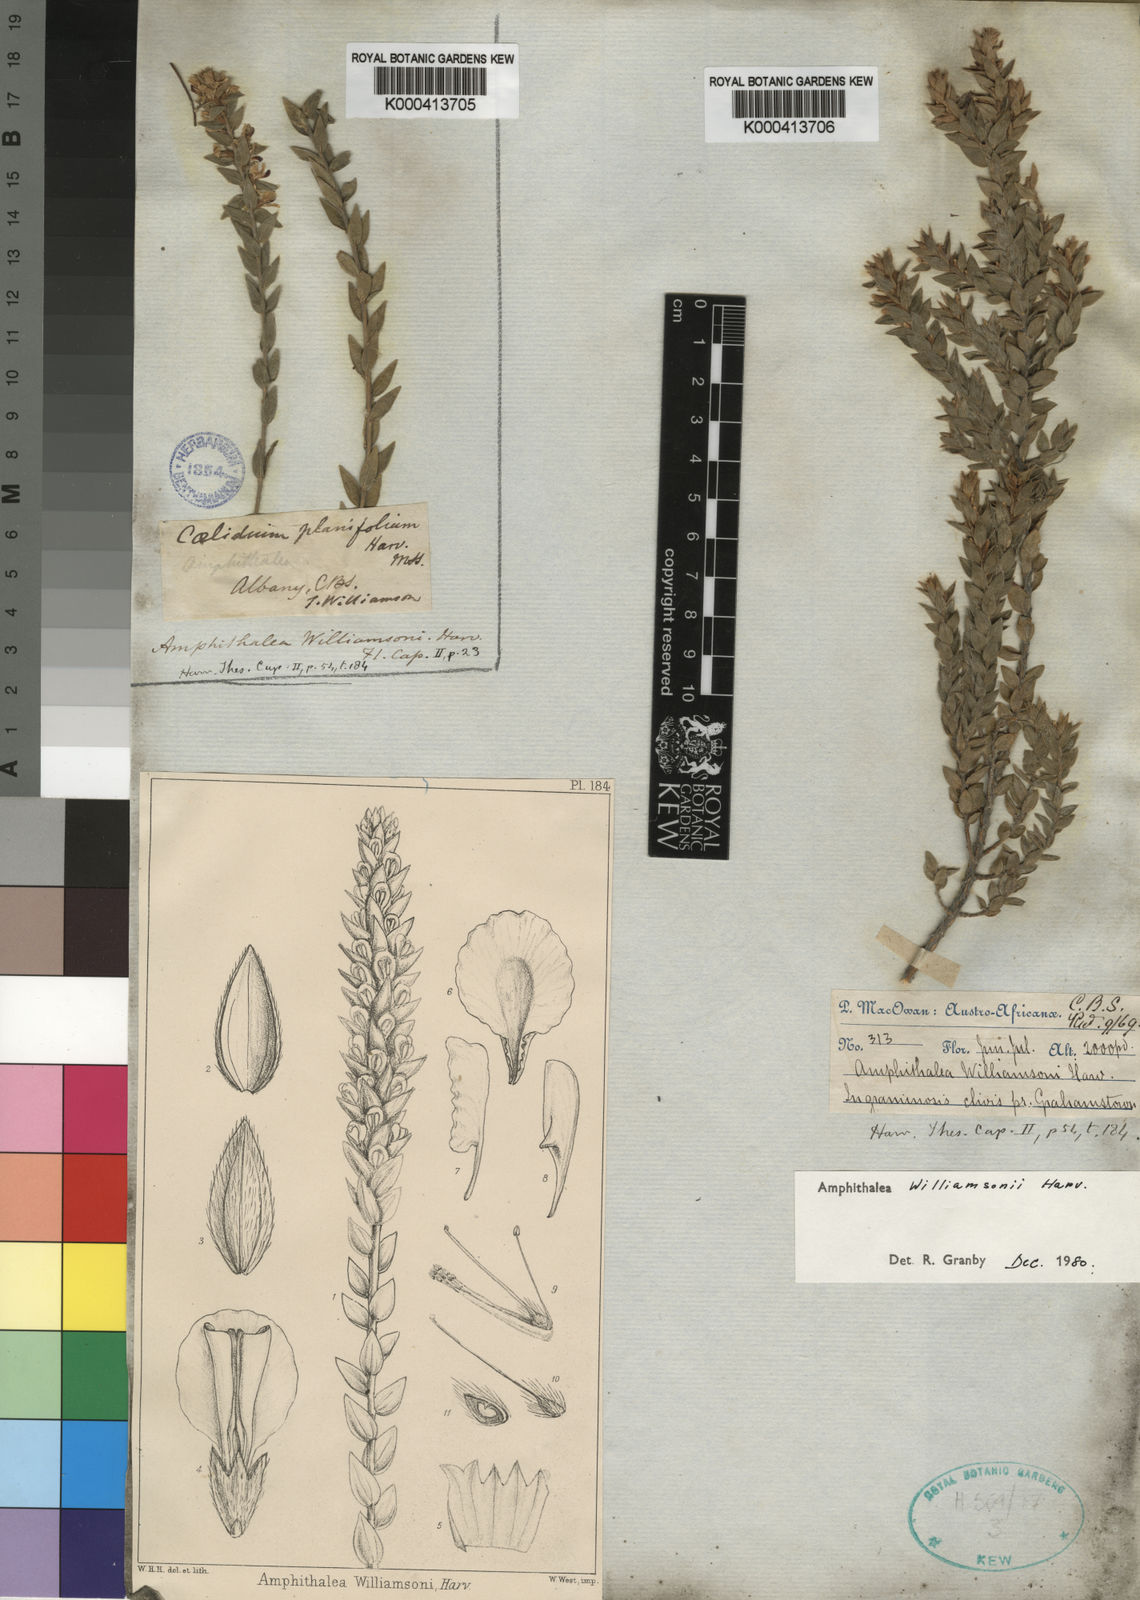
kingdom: Plantae
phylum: Tracheophyta
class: Magnoliopsida
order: Fabales
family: Fabaceae
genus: Amphithalea
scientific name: Amphithalea williamsonii
